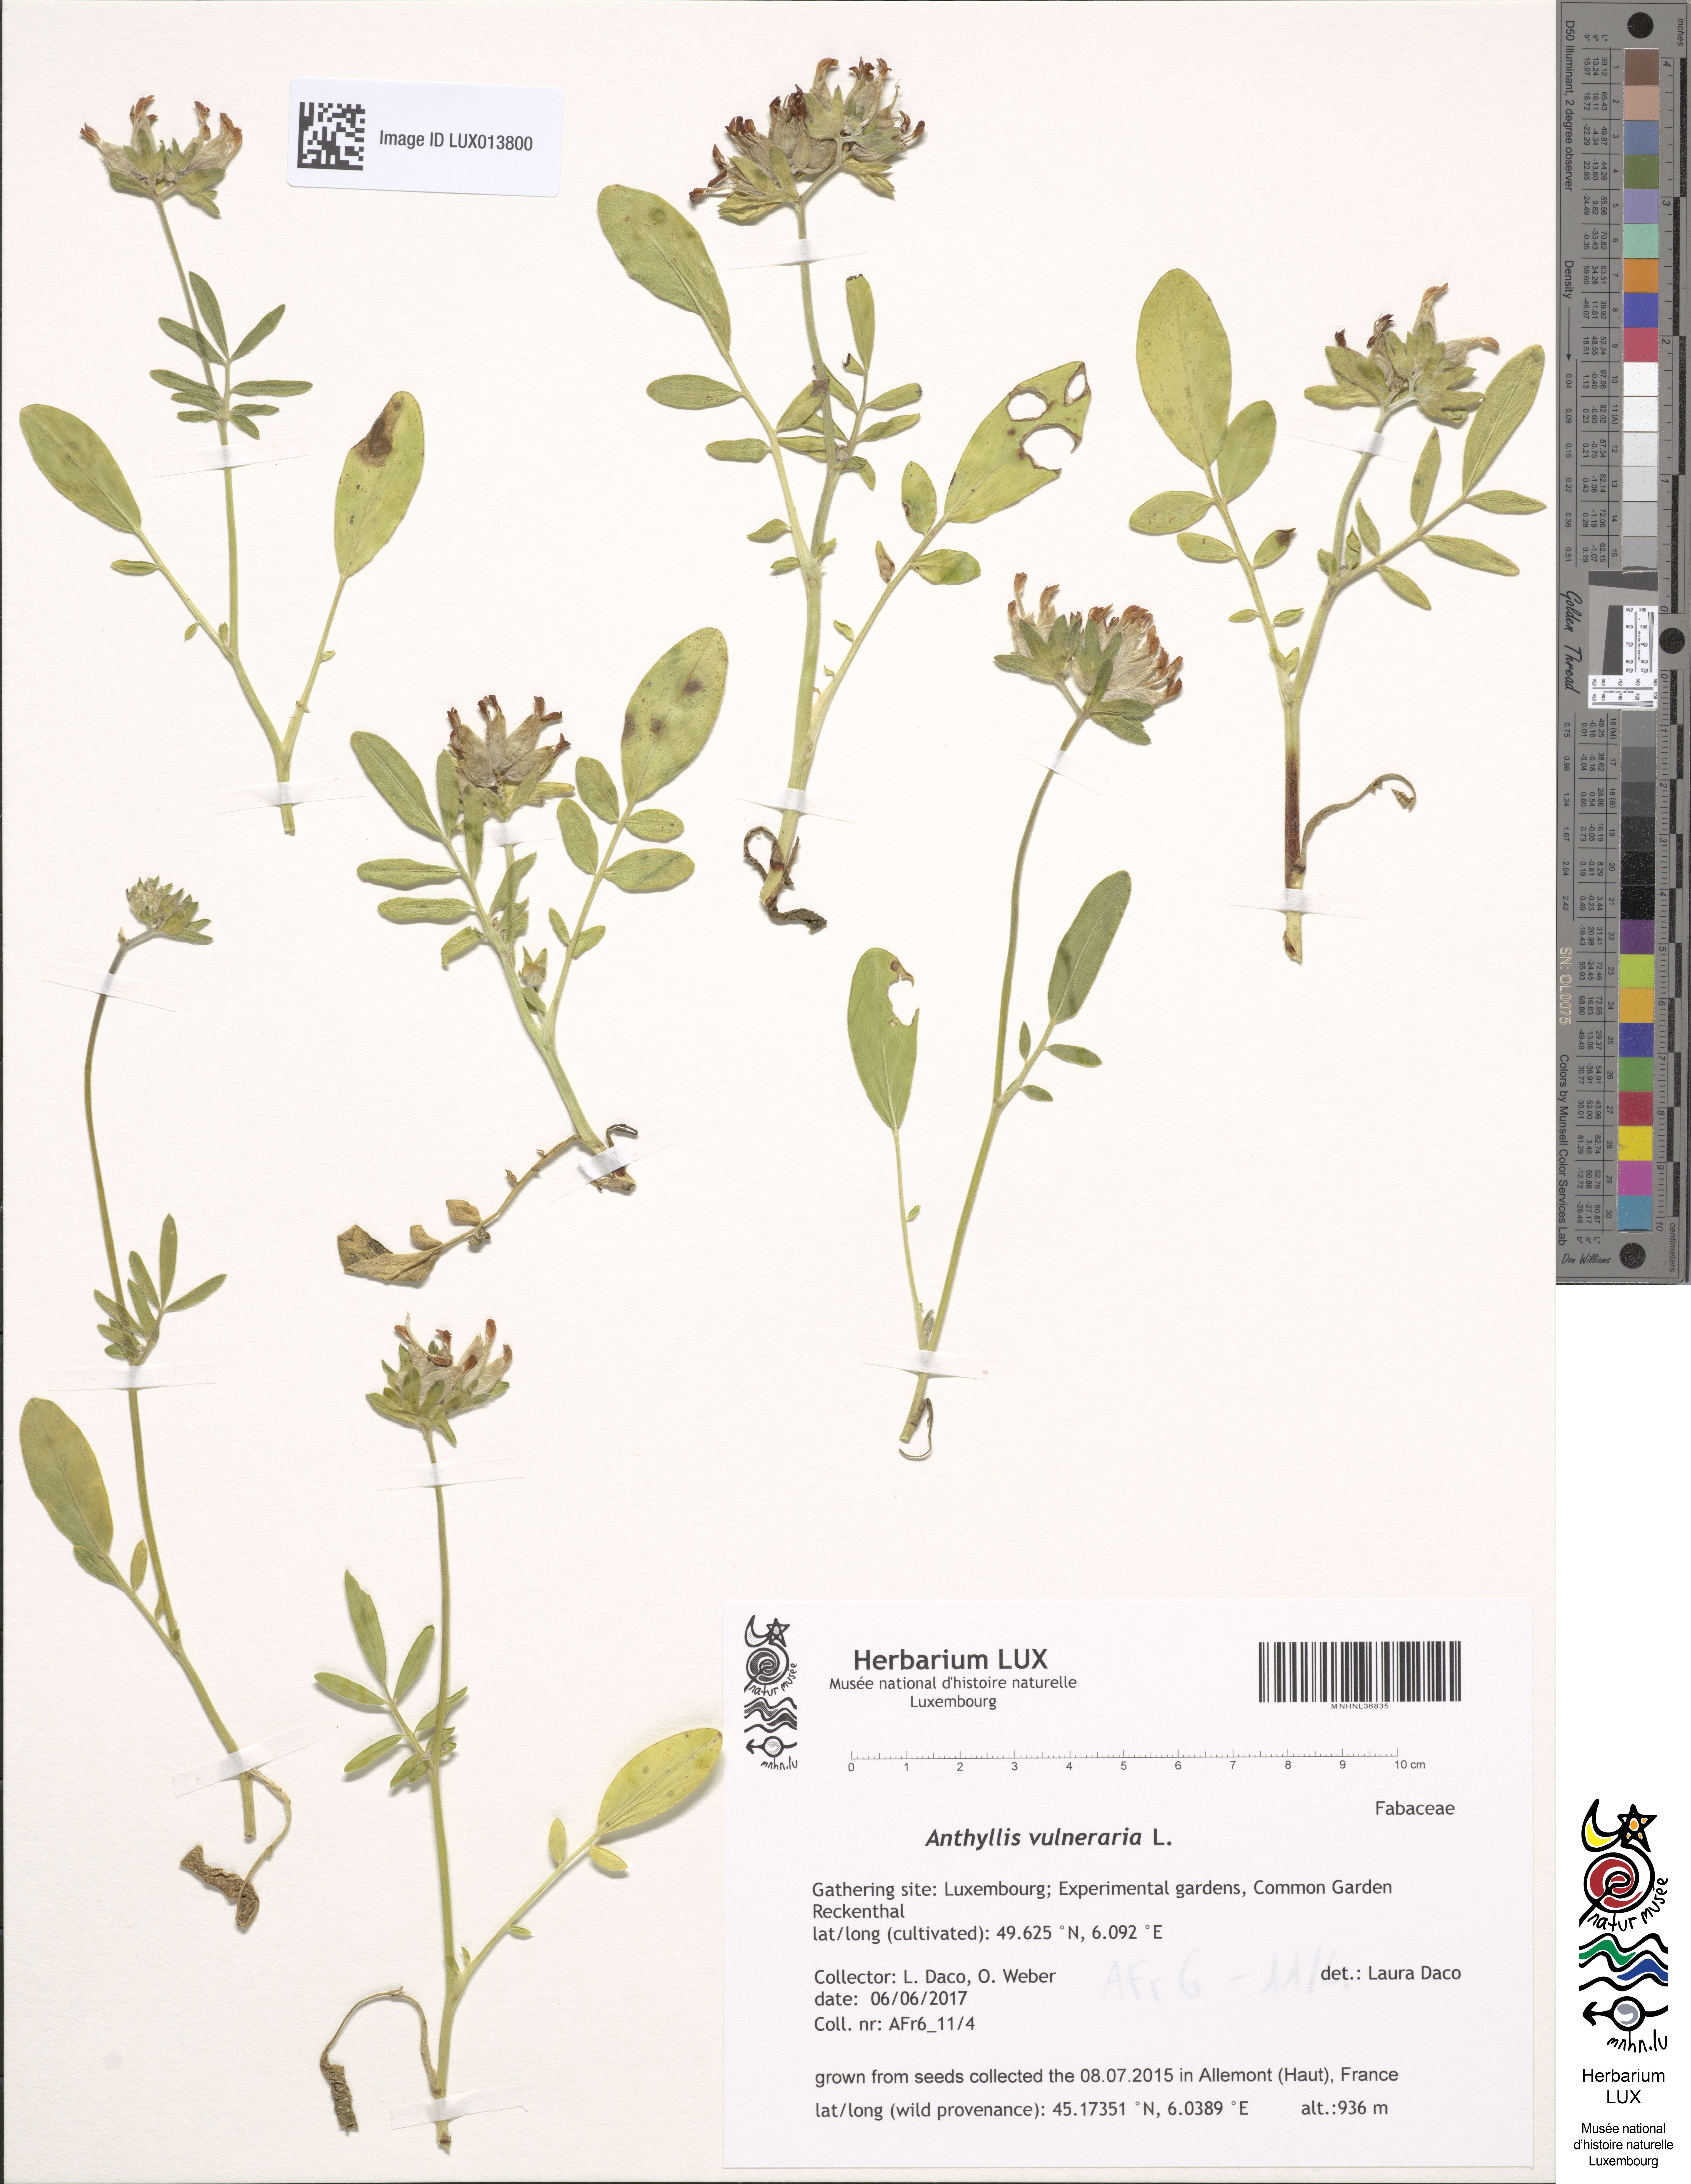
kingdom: Plantae
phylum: Tracheophyta
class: Magnoliopsida
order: Fabales
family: Fabaceae
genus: Anthyllis
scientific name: Anthyllis vulneraria
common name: Kidney vetch
